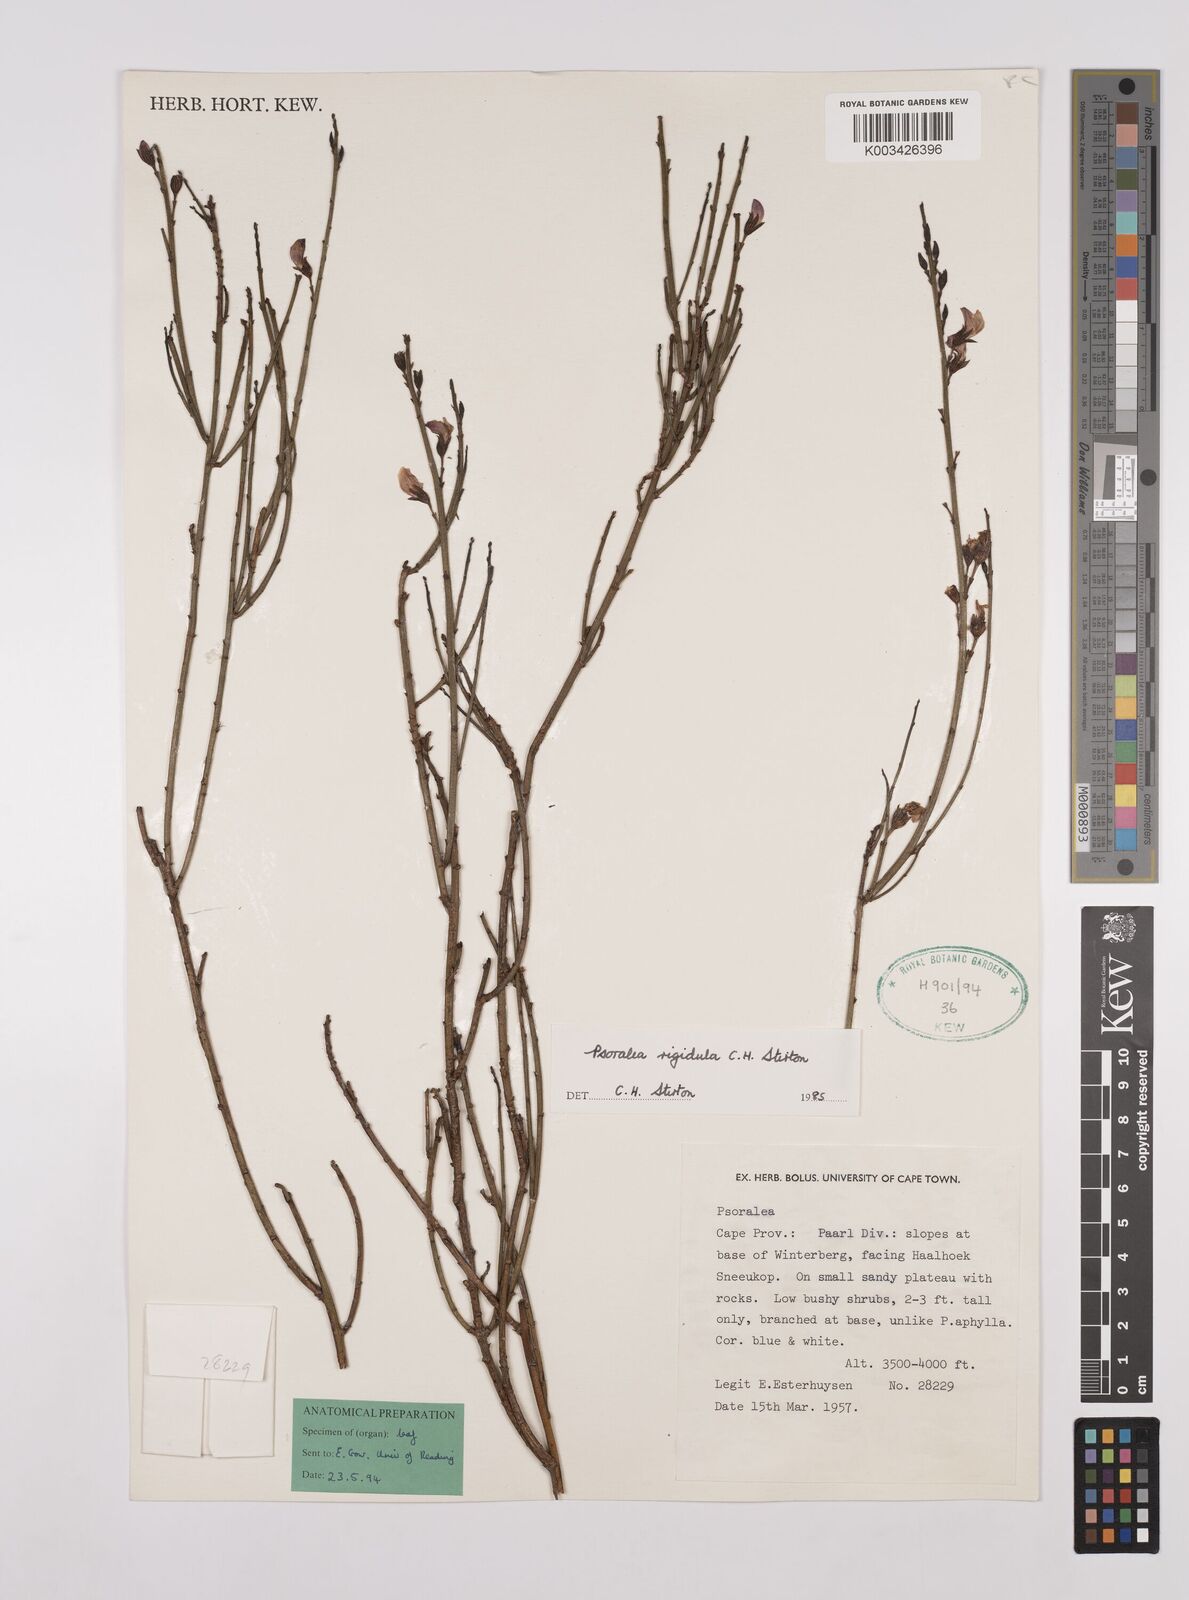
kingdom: Plantae
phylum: Tracheophyta
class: Magnoliopsida
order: Fabales
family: Fabaceae
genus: Psoralea
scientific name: Psoralea rigidula
